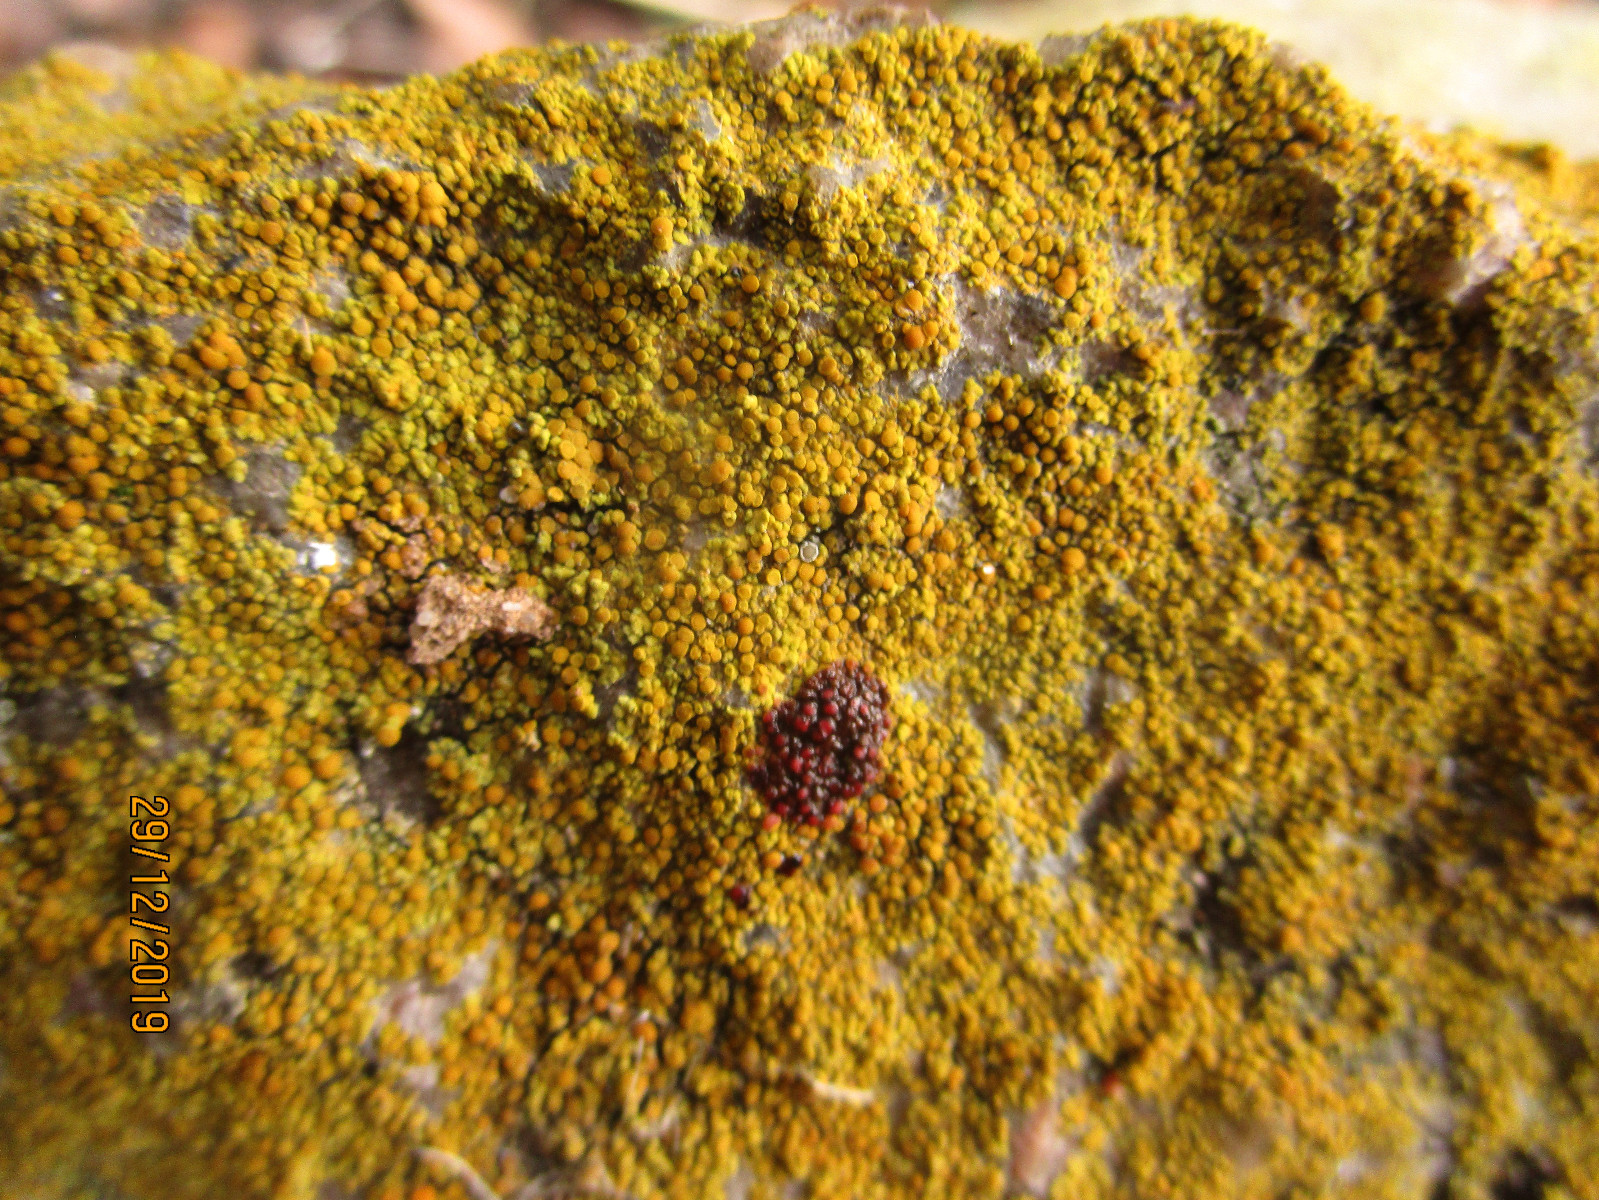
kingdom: Fungi
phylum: Ascomycota
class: Lecanoromycetes
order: Teloschistales
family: Teloschistaceae
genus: Calogaya
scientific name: Calogaya saxicola
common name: mur-orangelav
